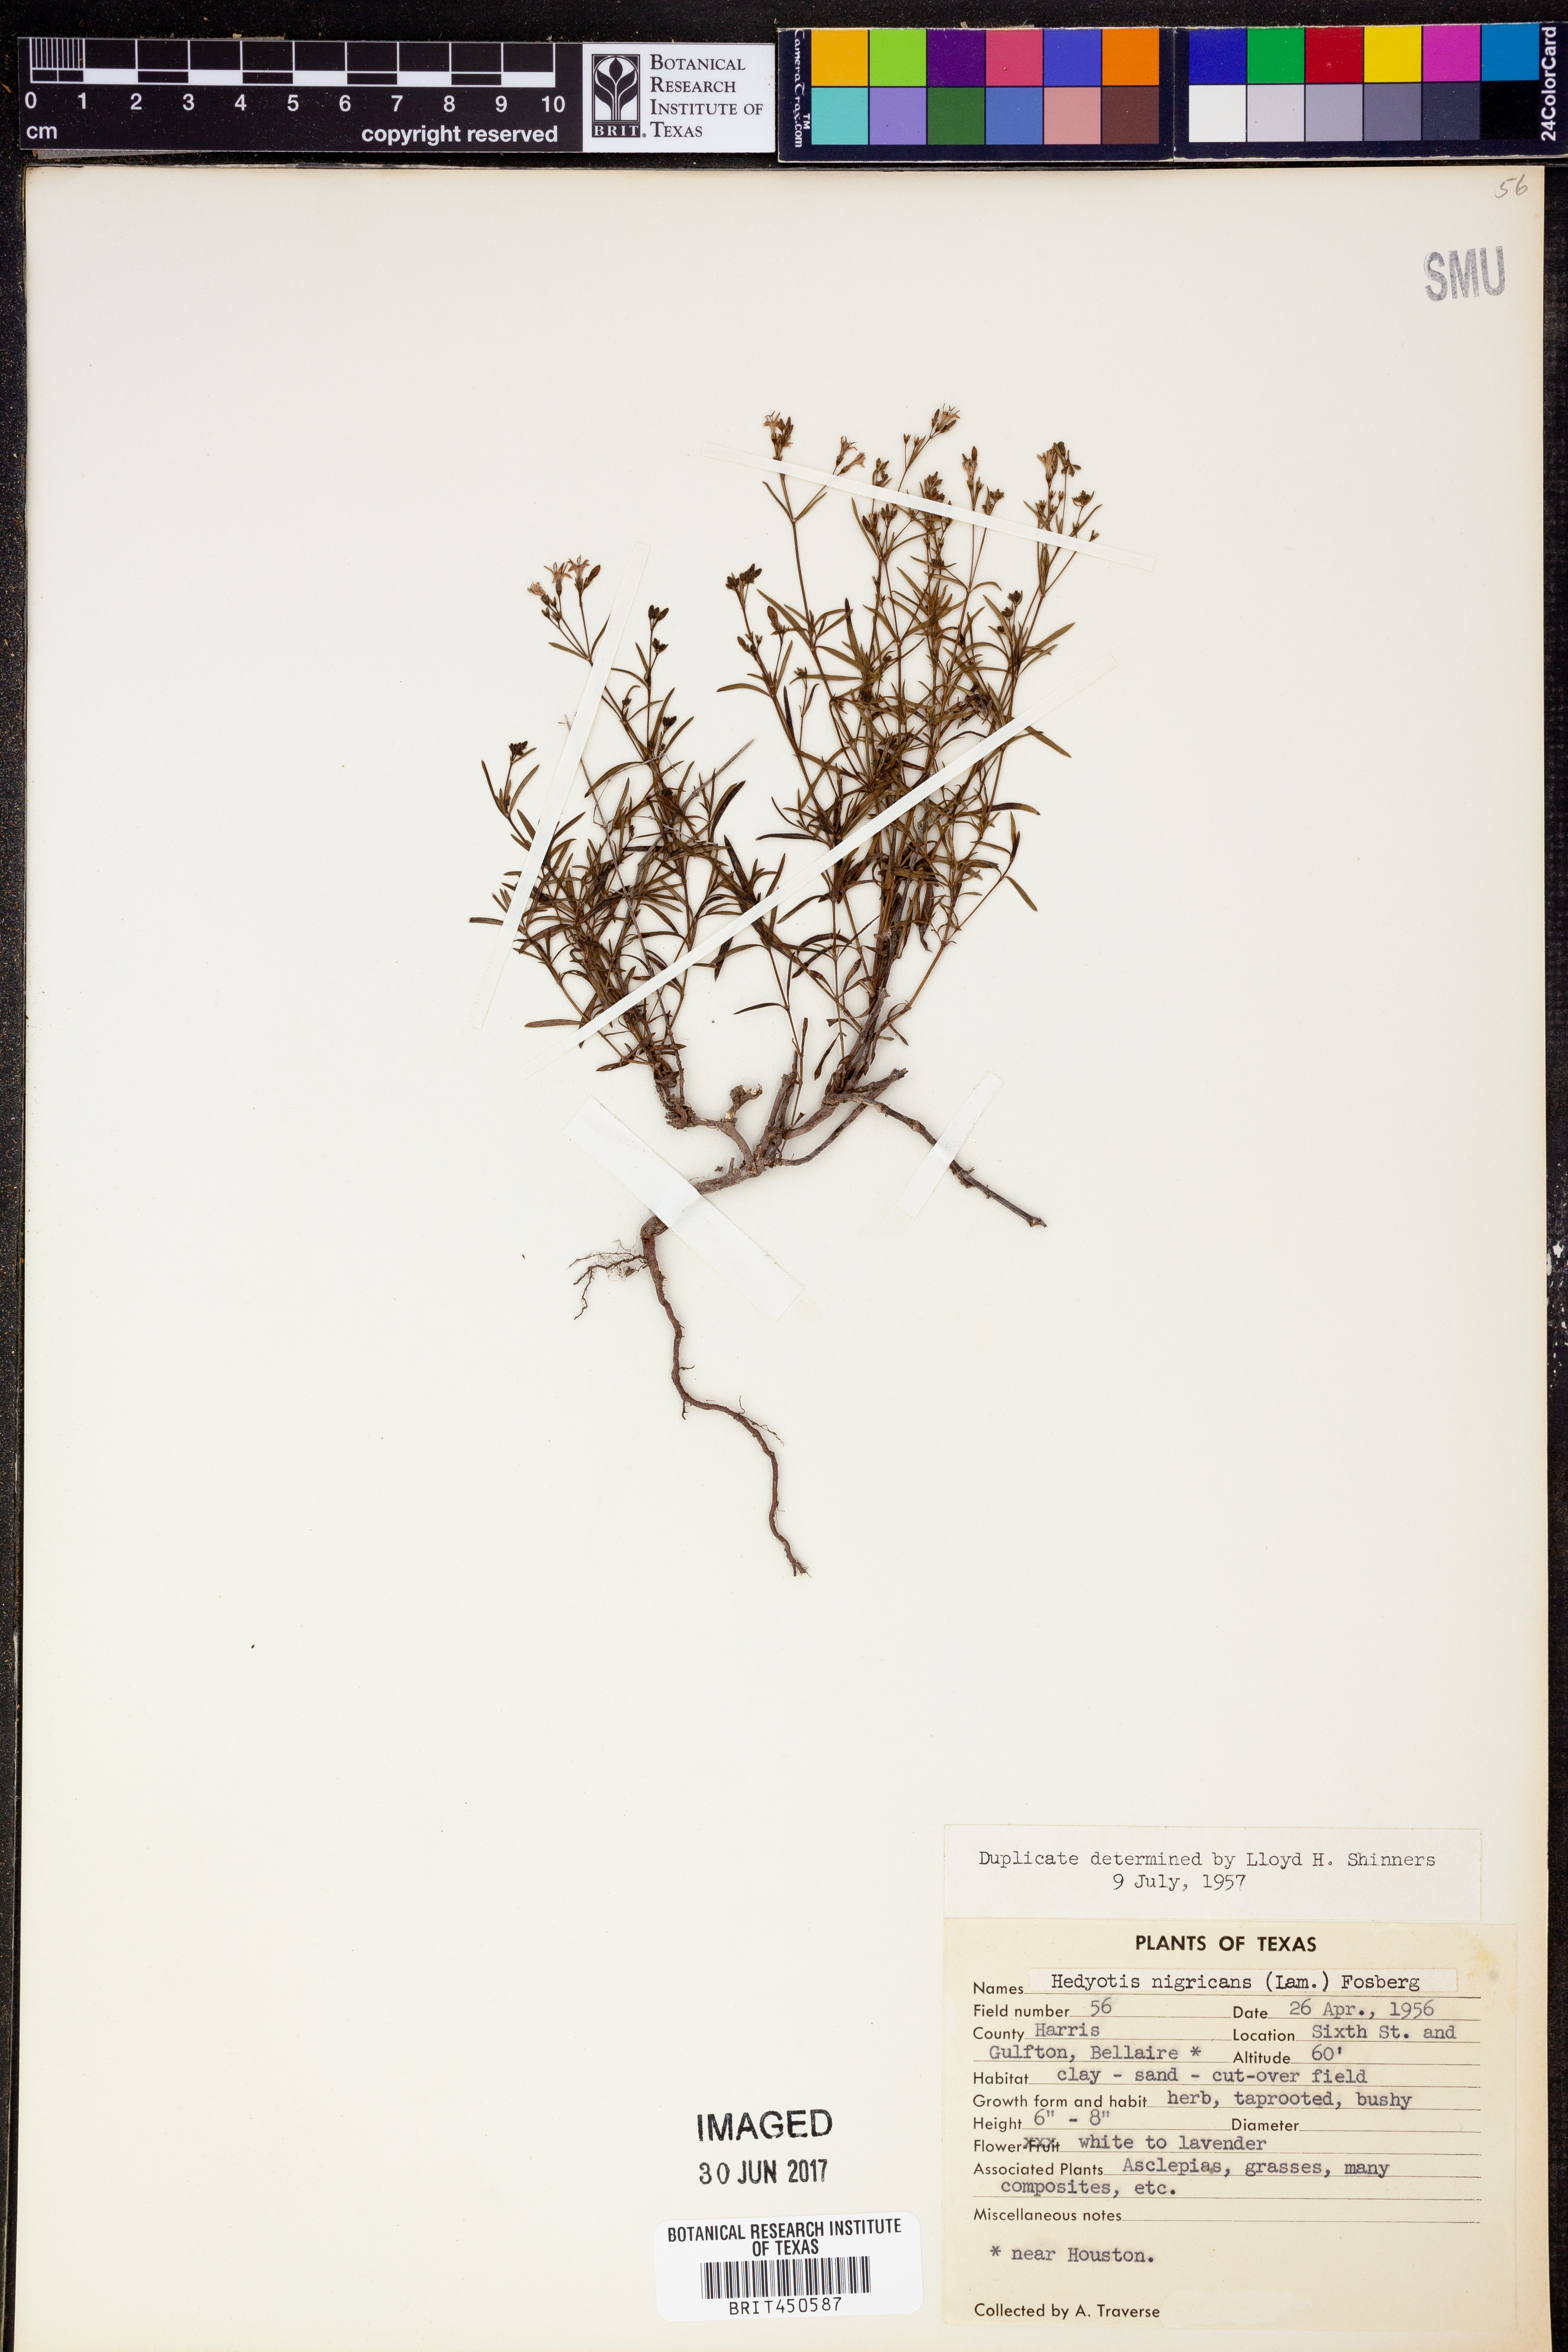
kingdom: Plantae
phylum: Tracheophyta
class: Magnoliopsida
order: Gentianales
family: Rubiaceae
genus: Stenaria
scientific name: Stenaria nigricans
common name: Diamondflowers
